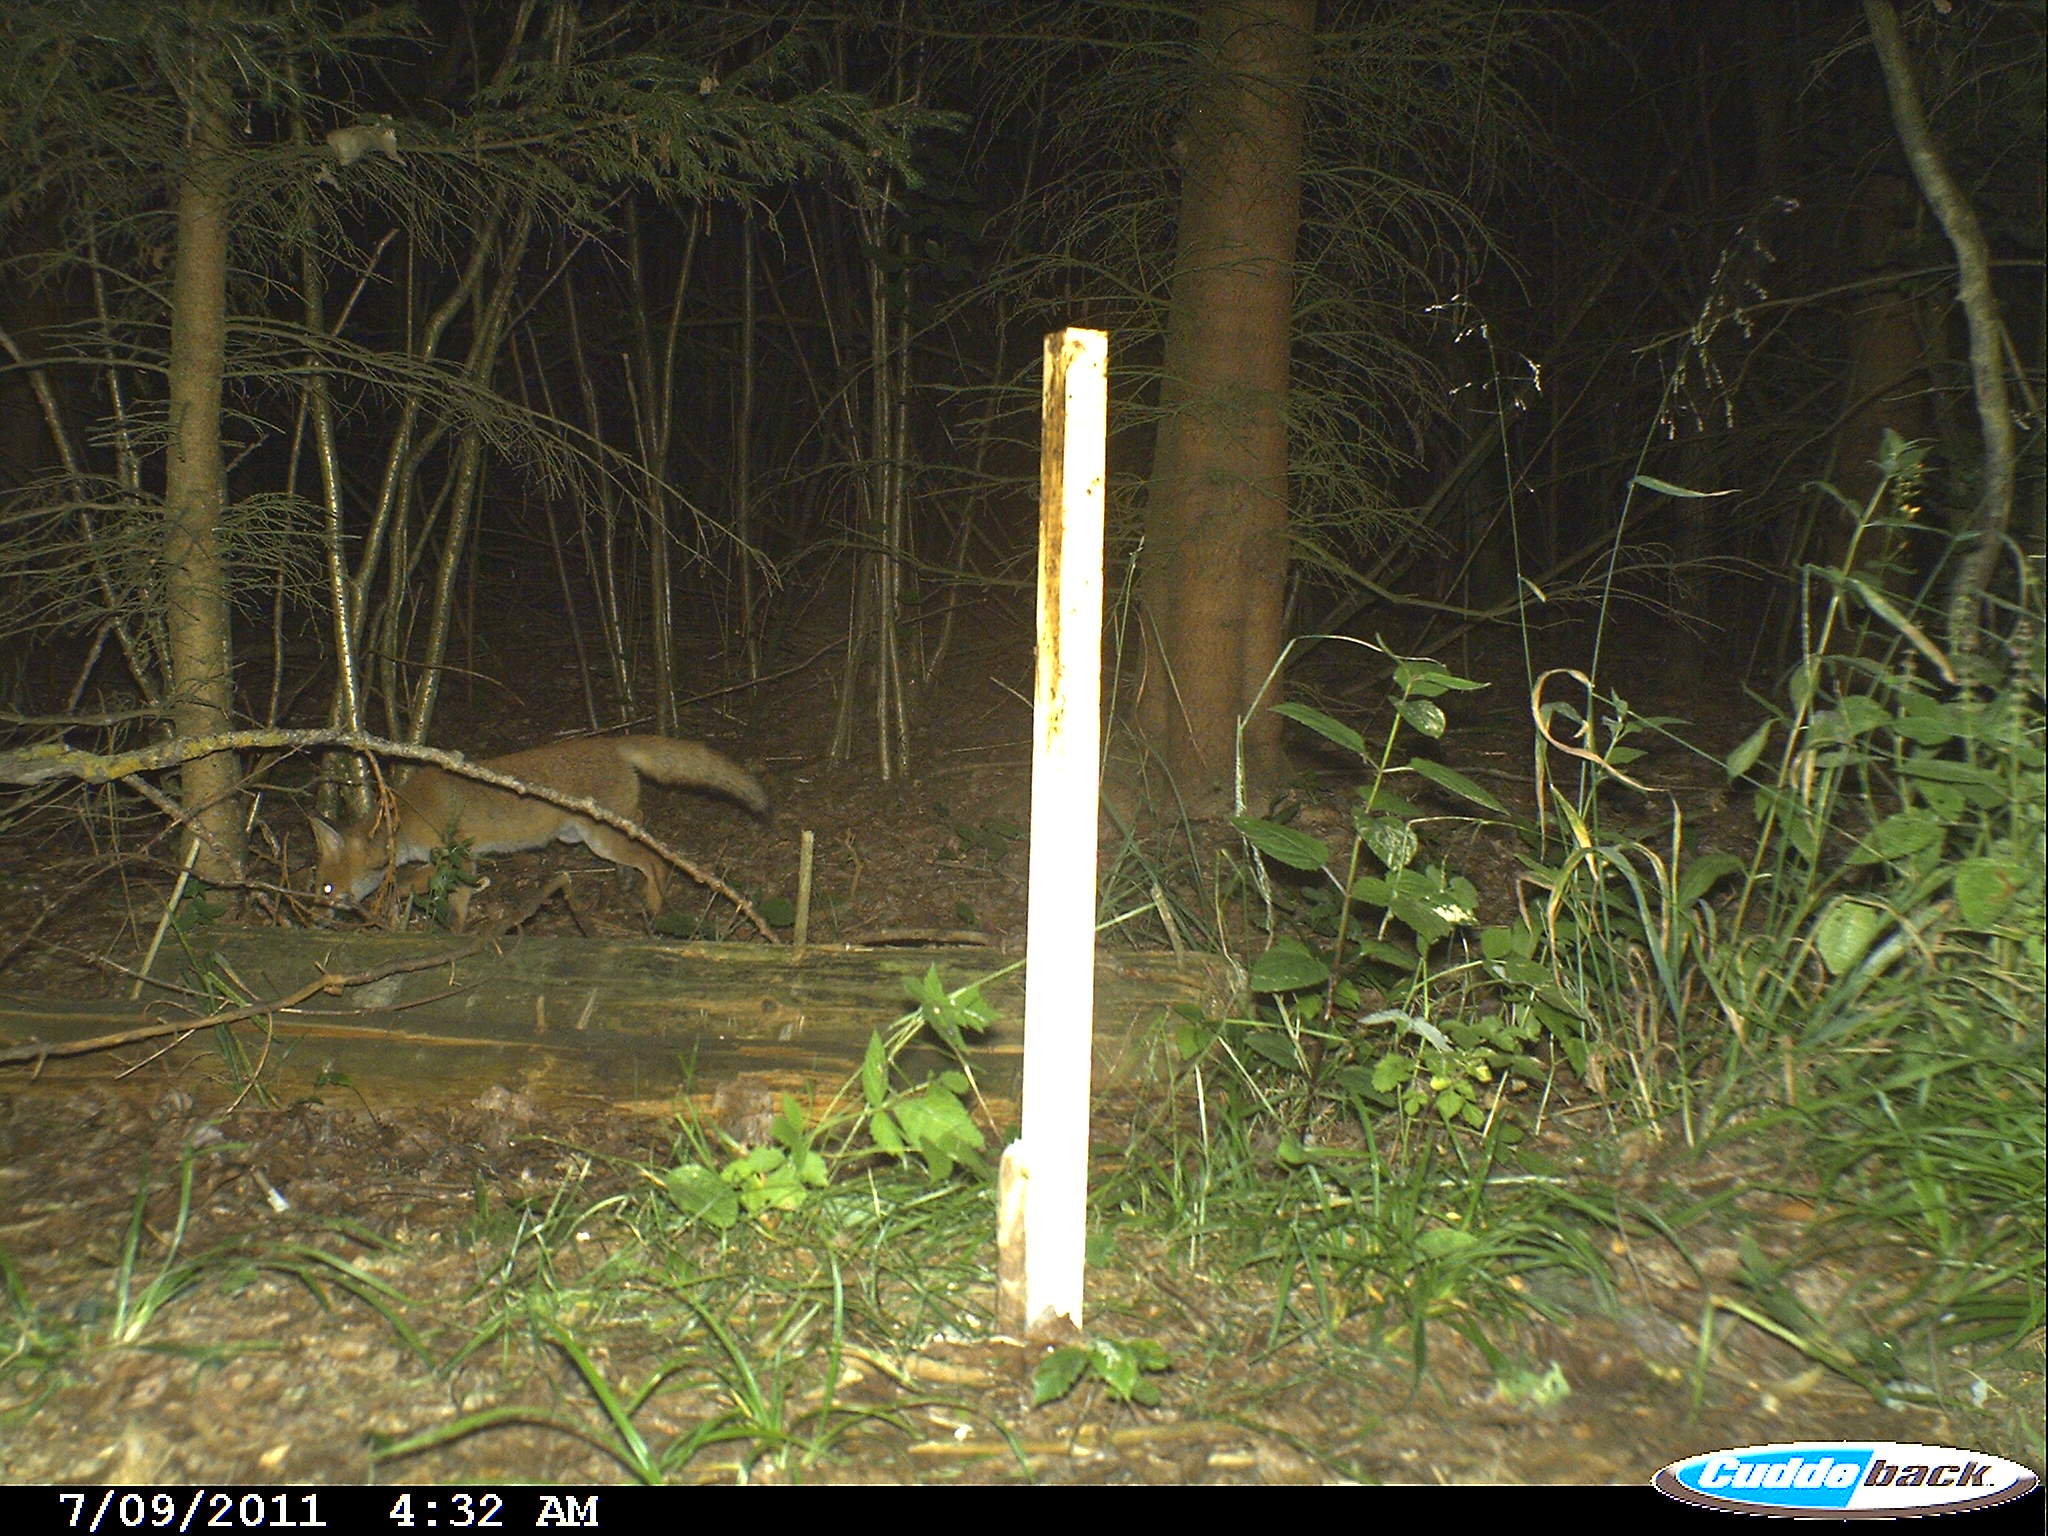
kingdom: Animalia
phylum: Chordata
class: Mammalia
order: Carnivora
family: Canidae
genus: Vulpes
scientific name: Vulpes vulpes
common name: Red fox
